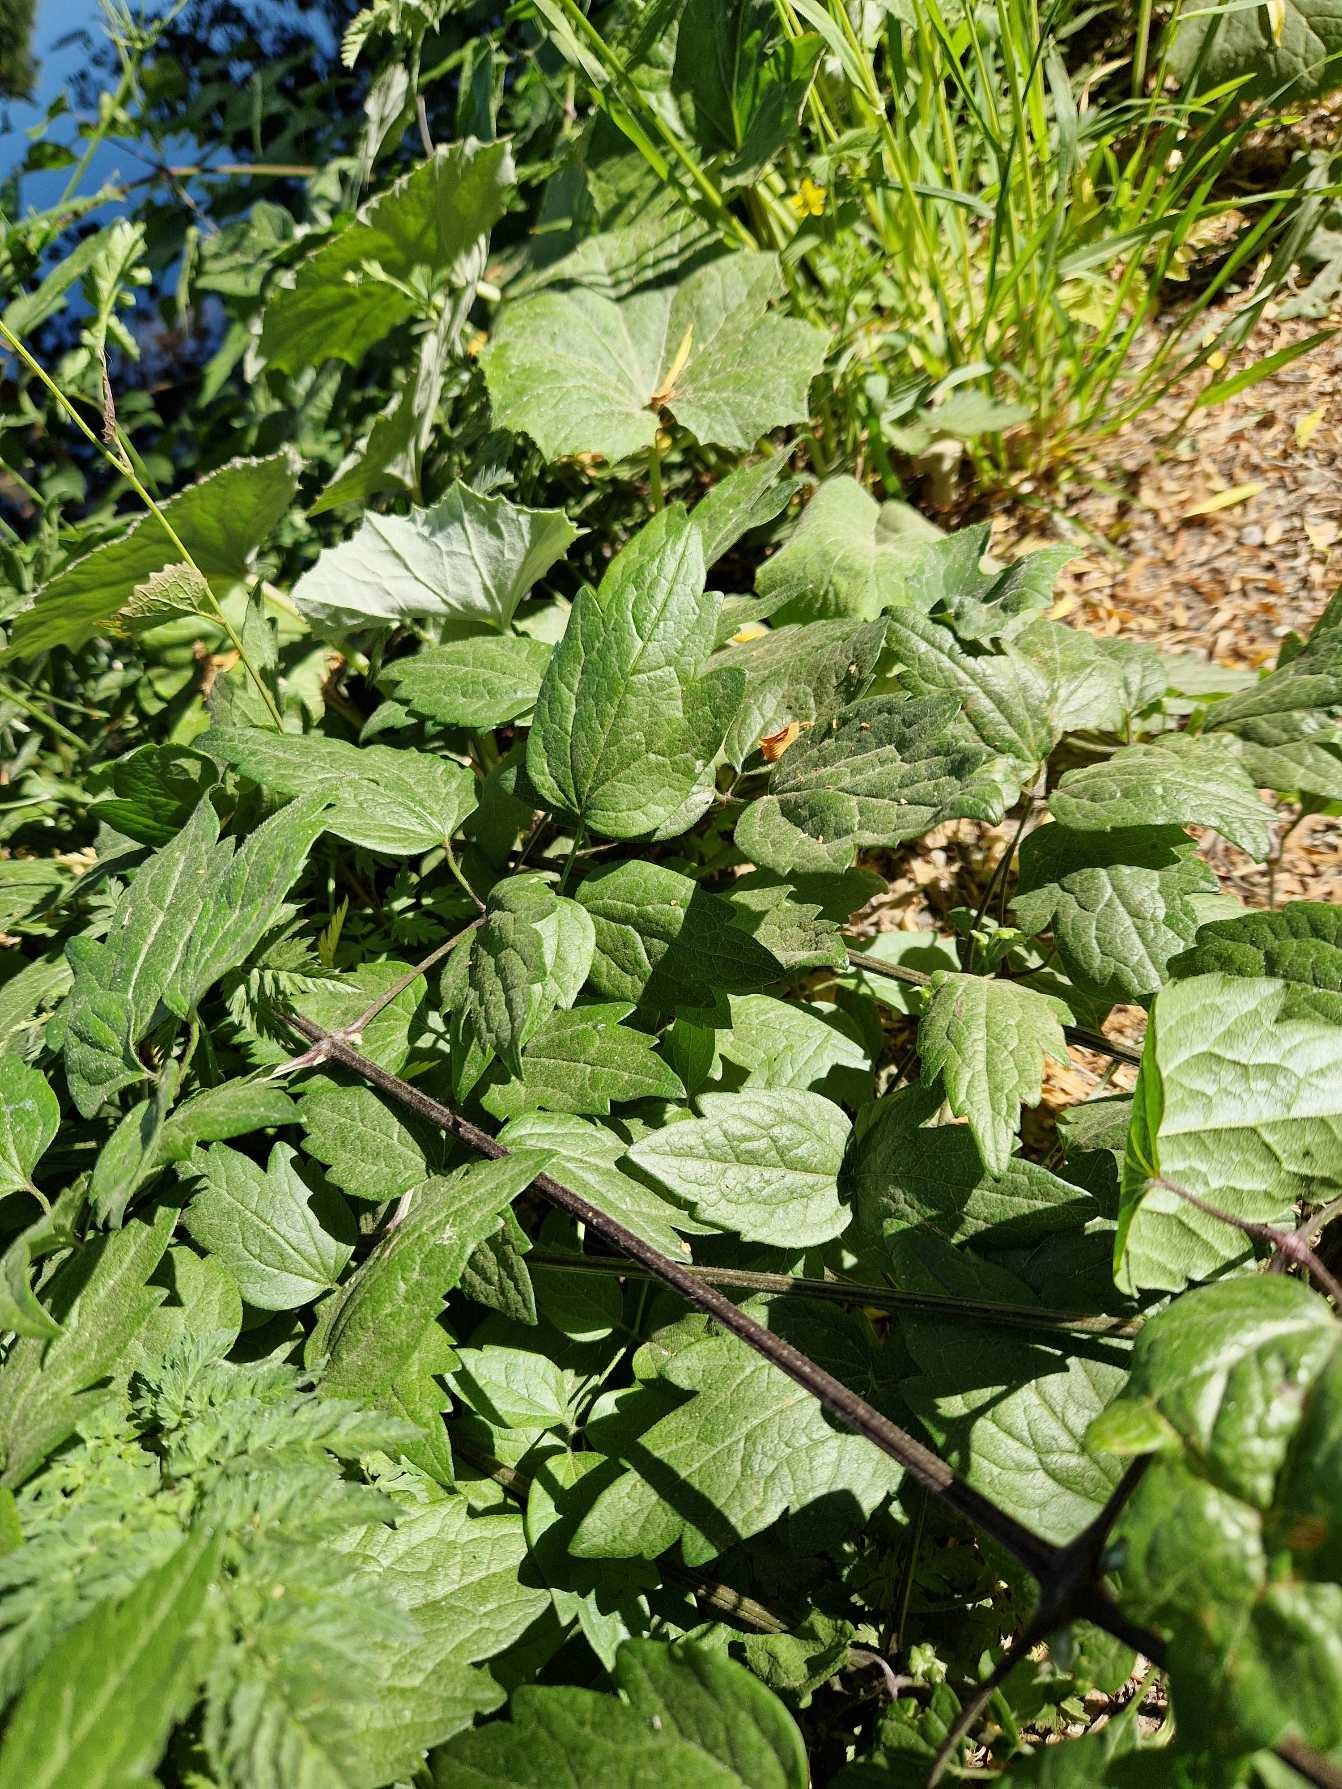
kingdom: Plantae
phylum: Tracheophyta
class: Magnoliopsida
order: Ranunculales
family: Ranunculaceae
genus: Clematis
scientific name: Clematis vitalba
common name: Skovranke
